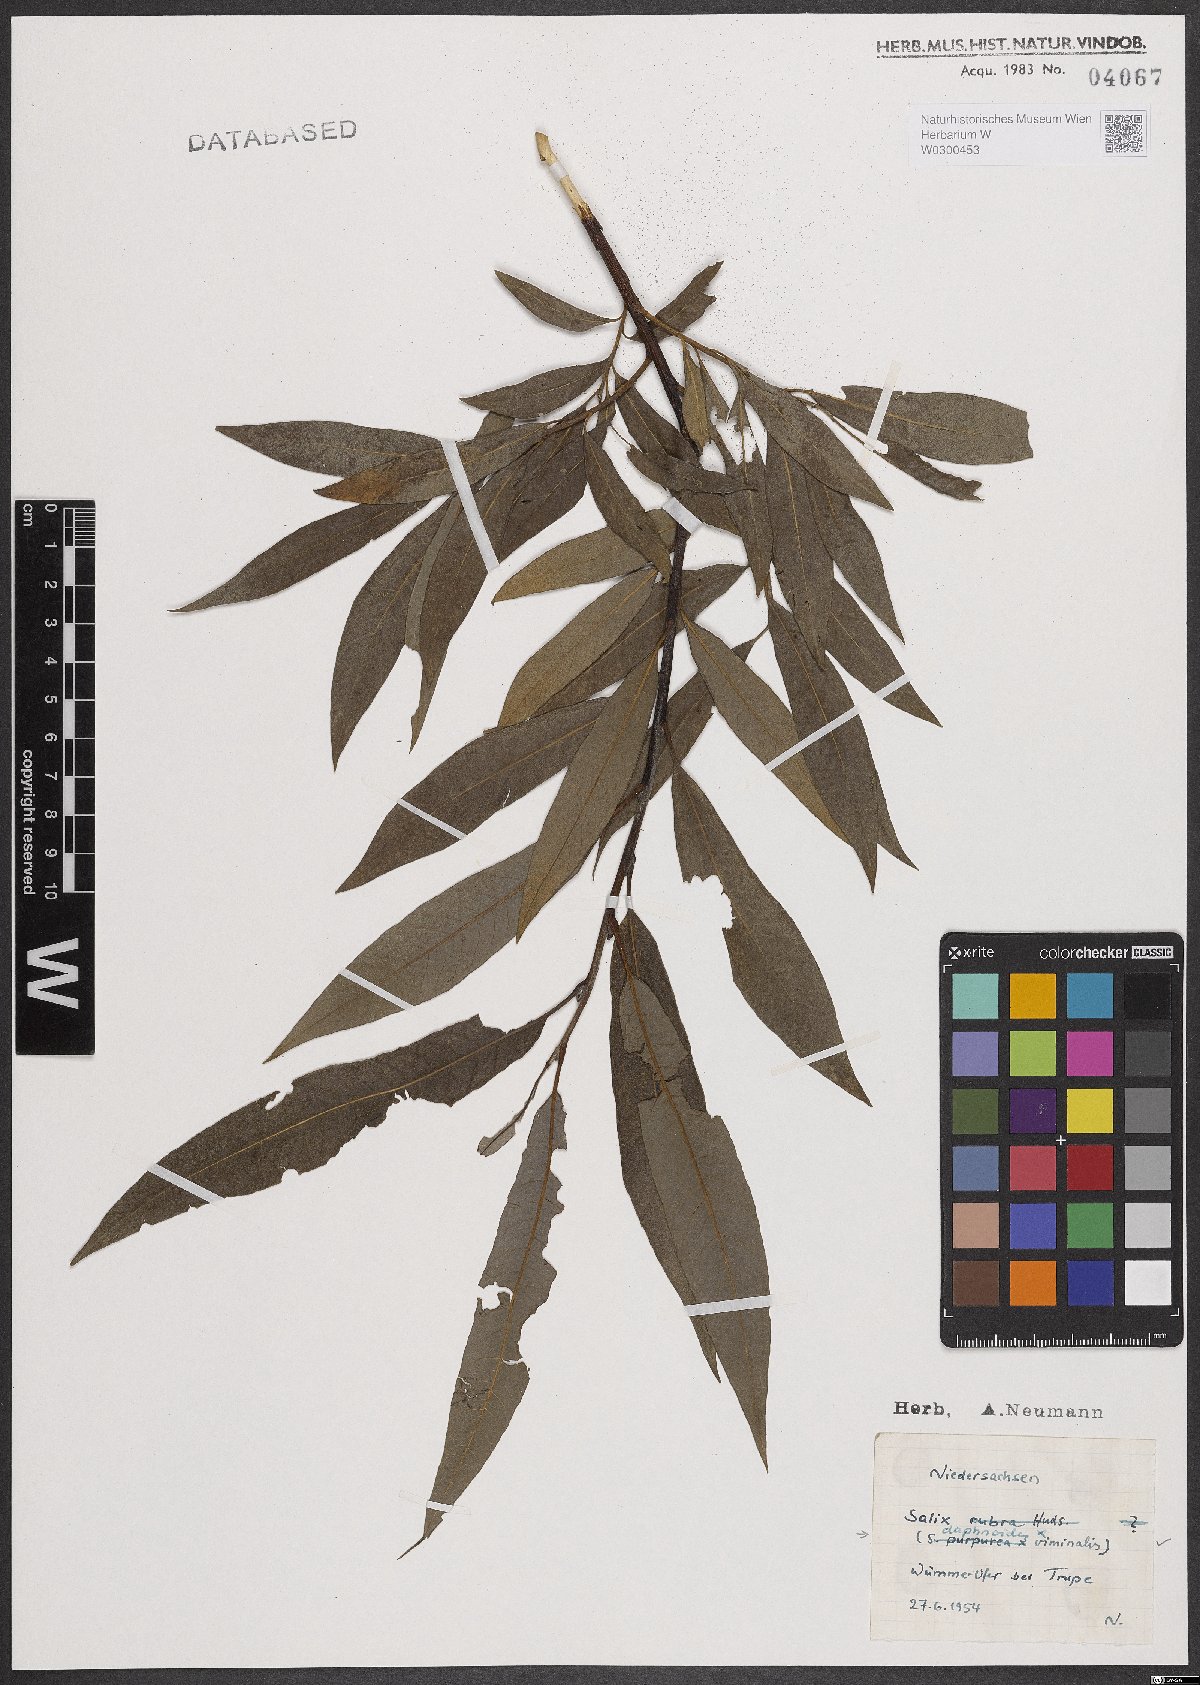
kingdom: Plantae
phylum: Tracheophyta
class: Magnoliopsida
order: Malpighiales
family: Salicaceae
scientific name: Salicaceae
